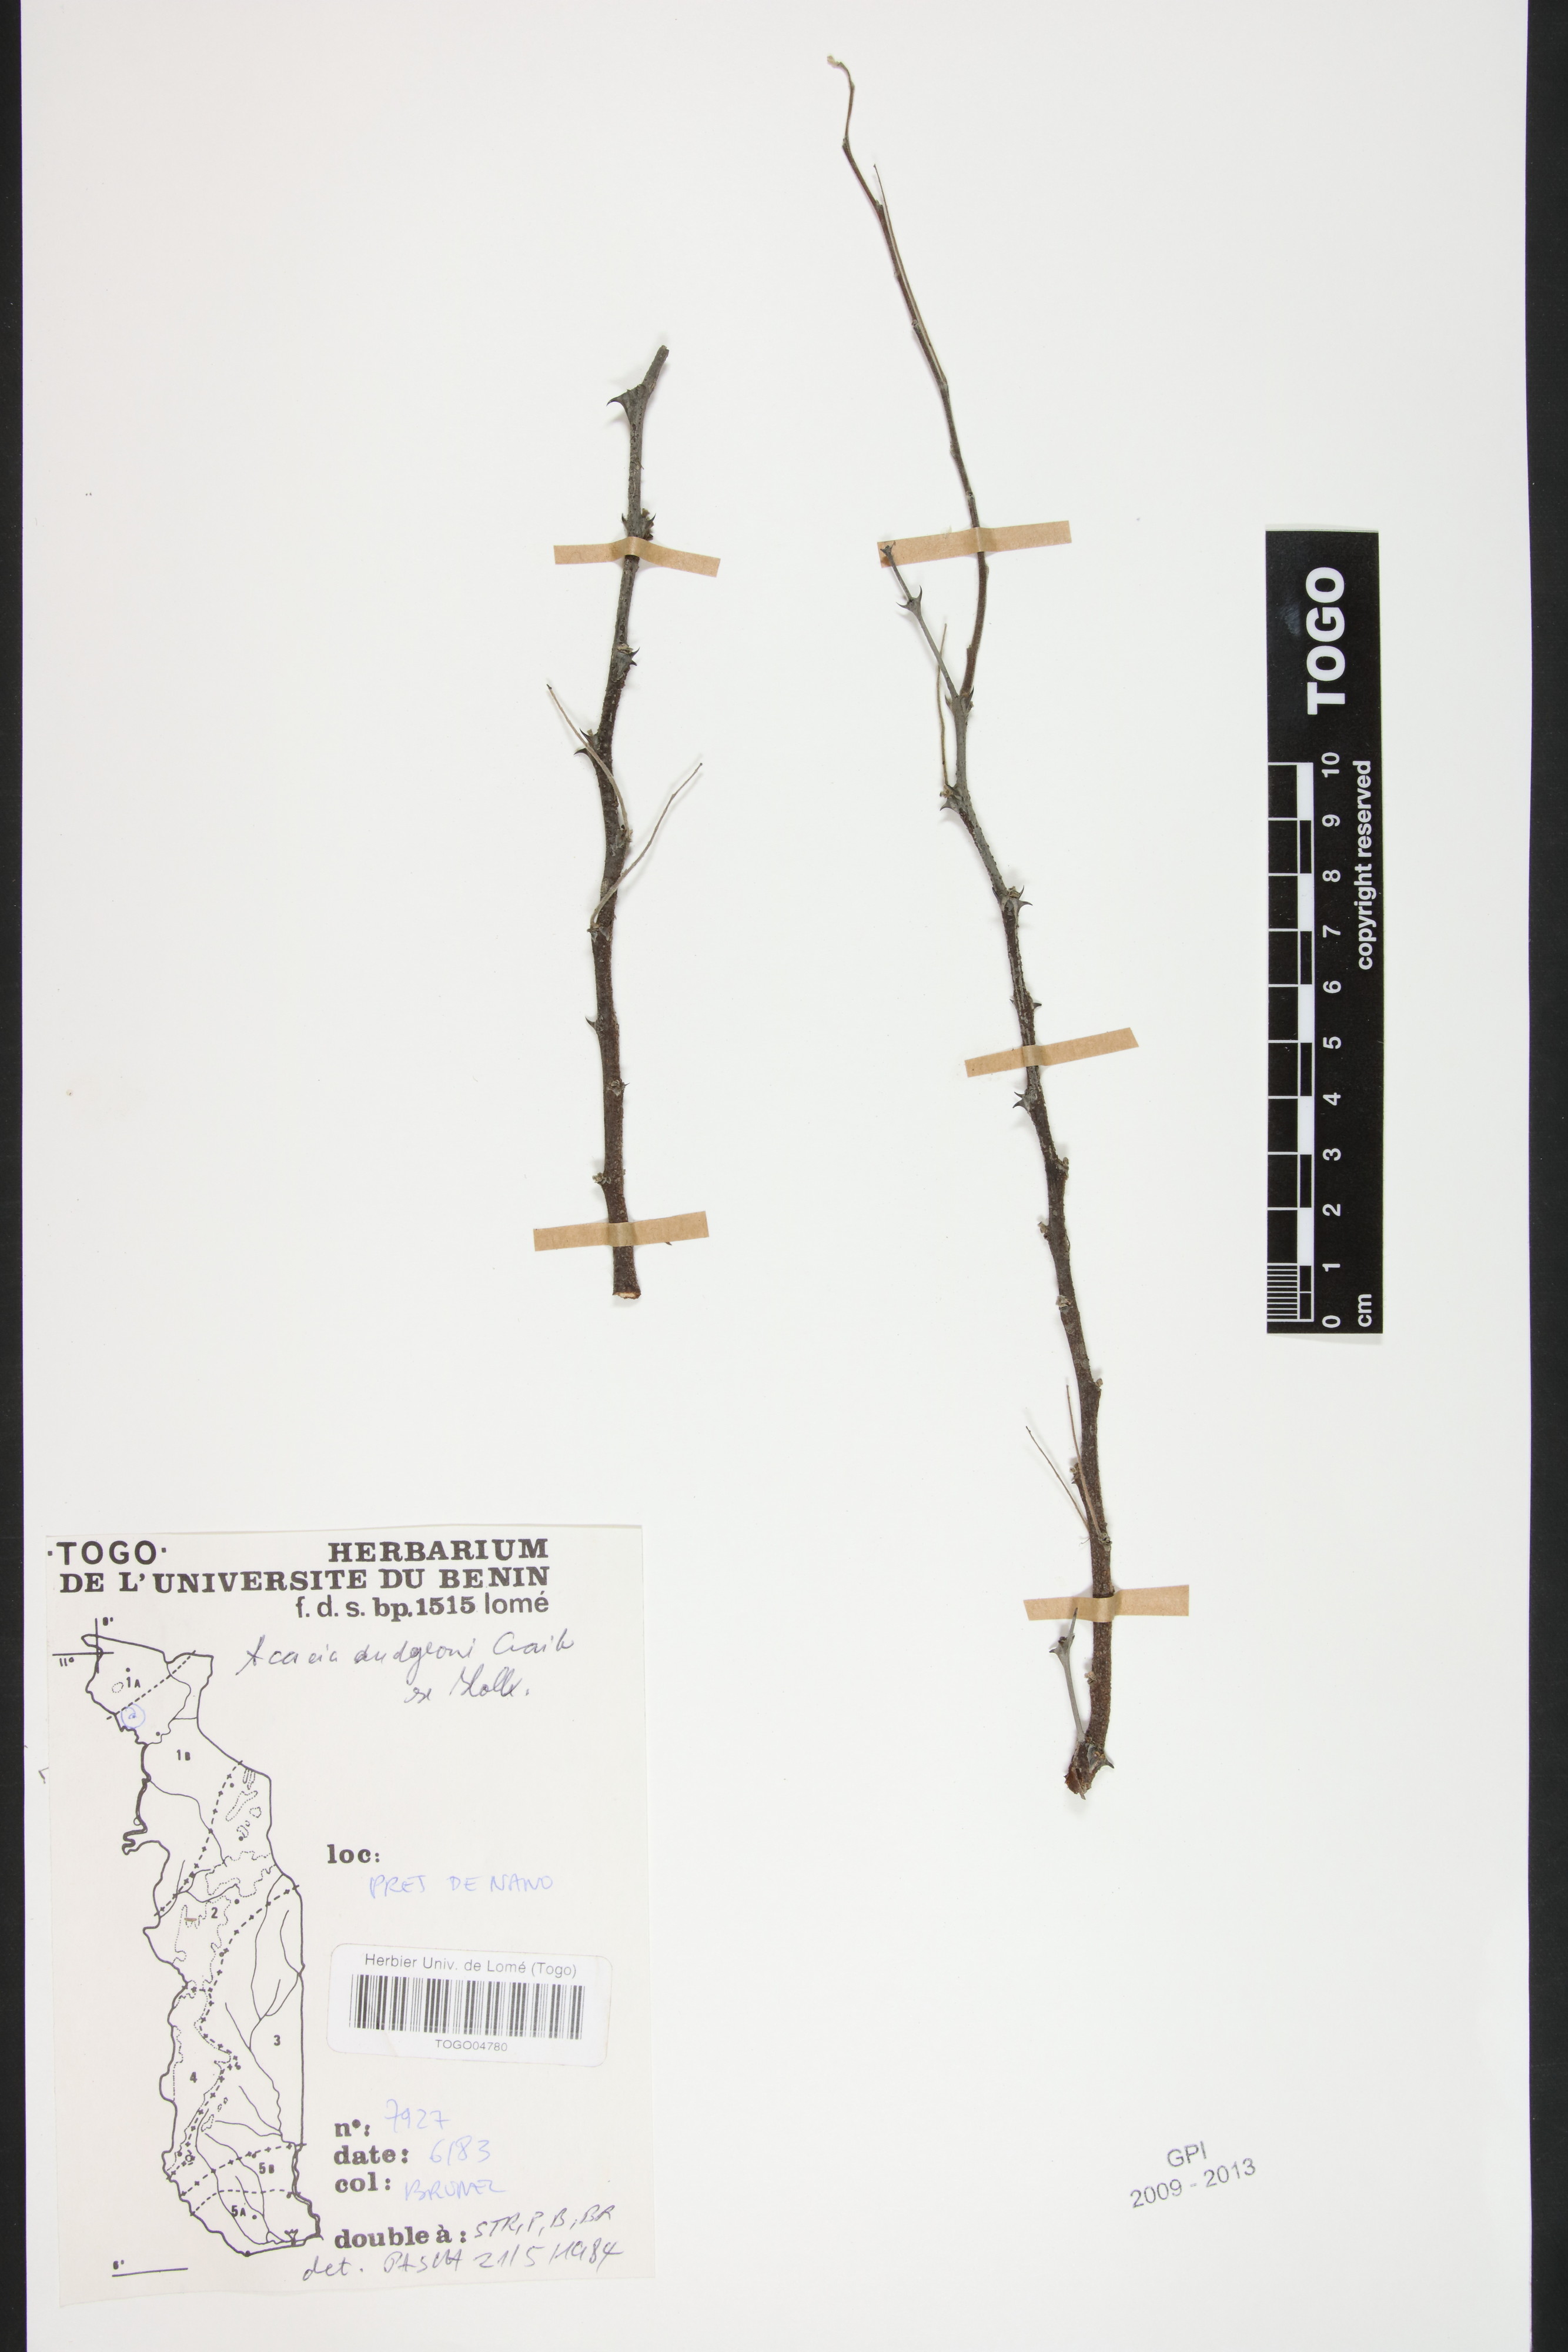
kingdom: Plantae
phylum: Tracheophyta
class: Magnoliopsida
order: Fabales
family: Fabaceae
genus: Senegalia
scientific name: Senegalia dudgeonii
